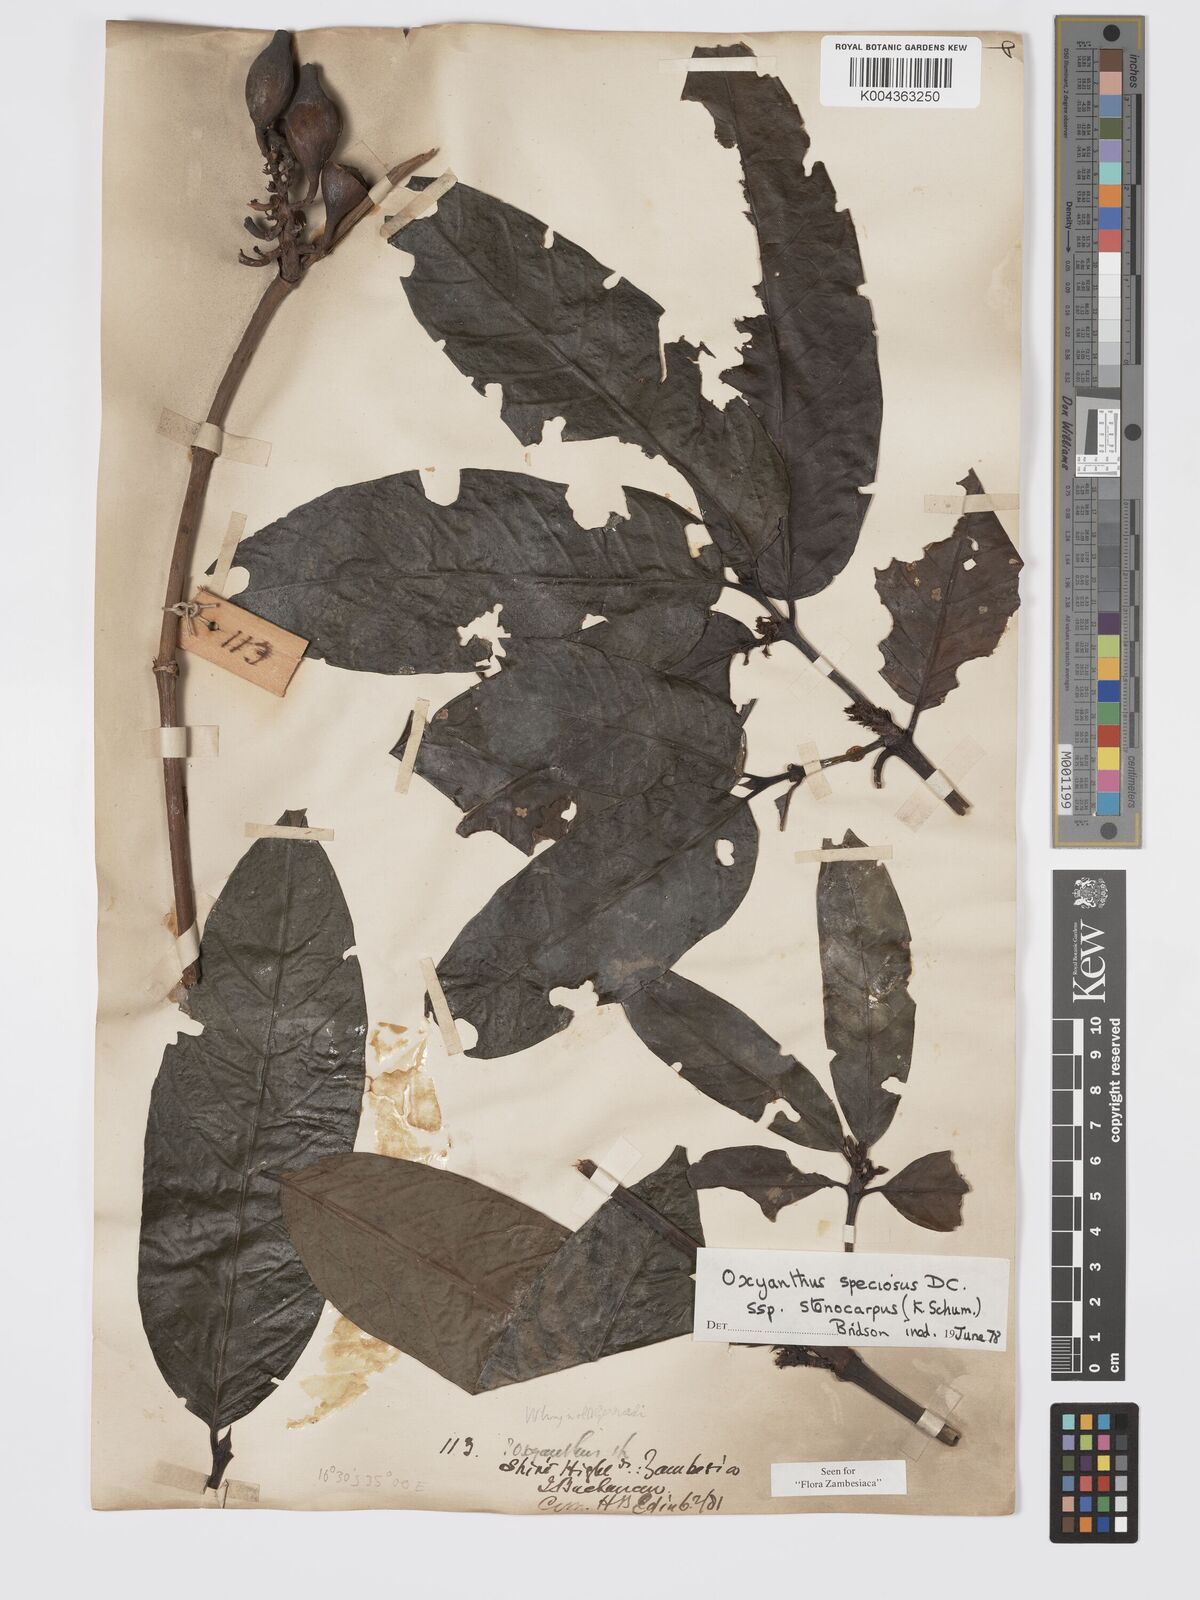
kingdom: Plantae
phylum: Tracheophyta
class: Magnoliopsida
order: Gentianales
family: Rubiaceae
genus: Oxyanthus
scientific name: Oxyanthus speciosus
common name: Whipstick loquat
